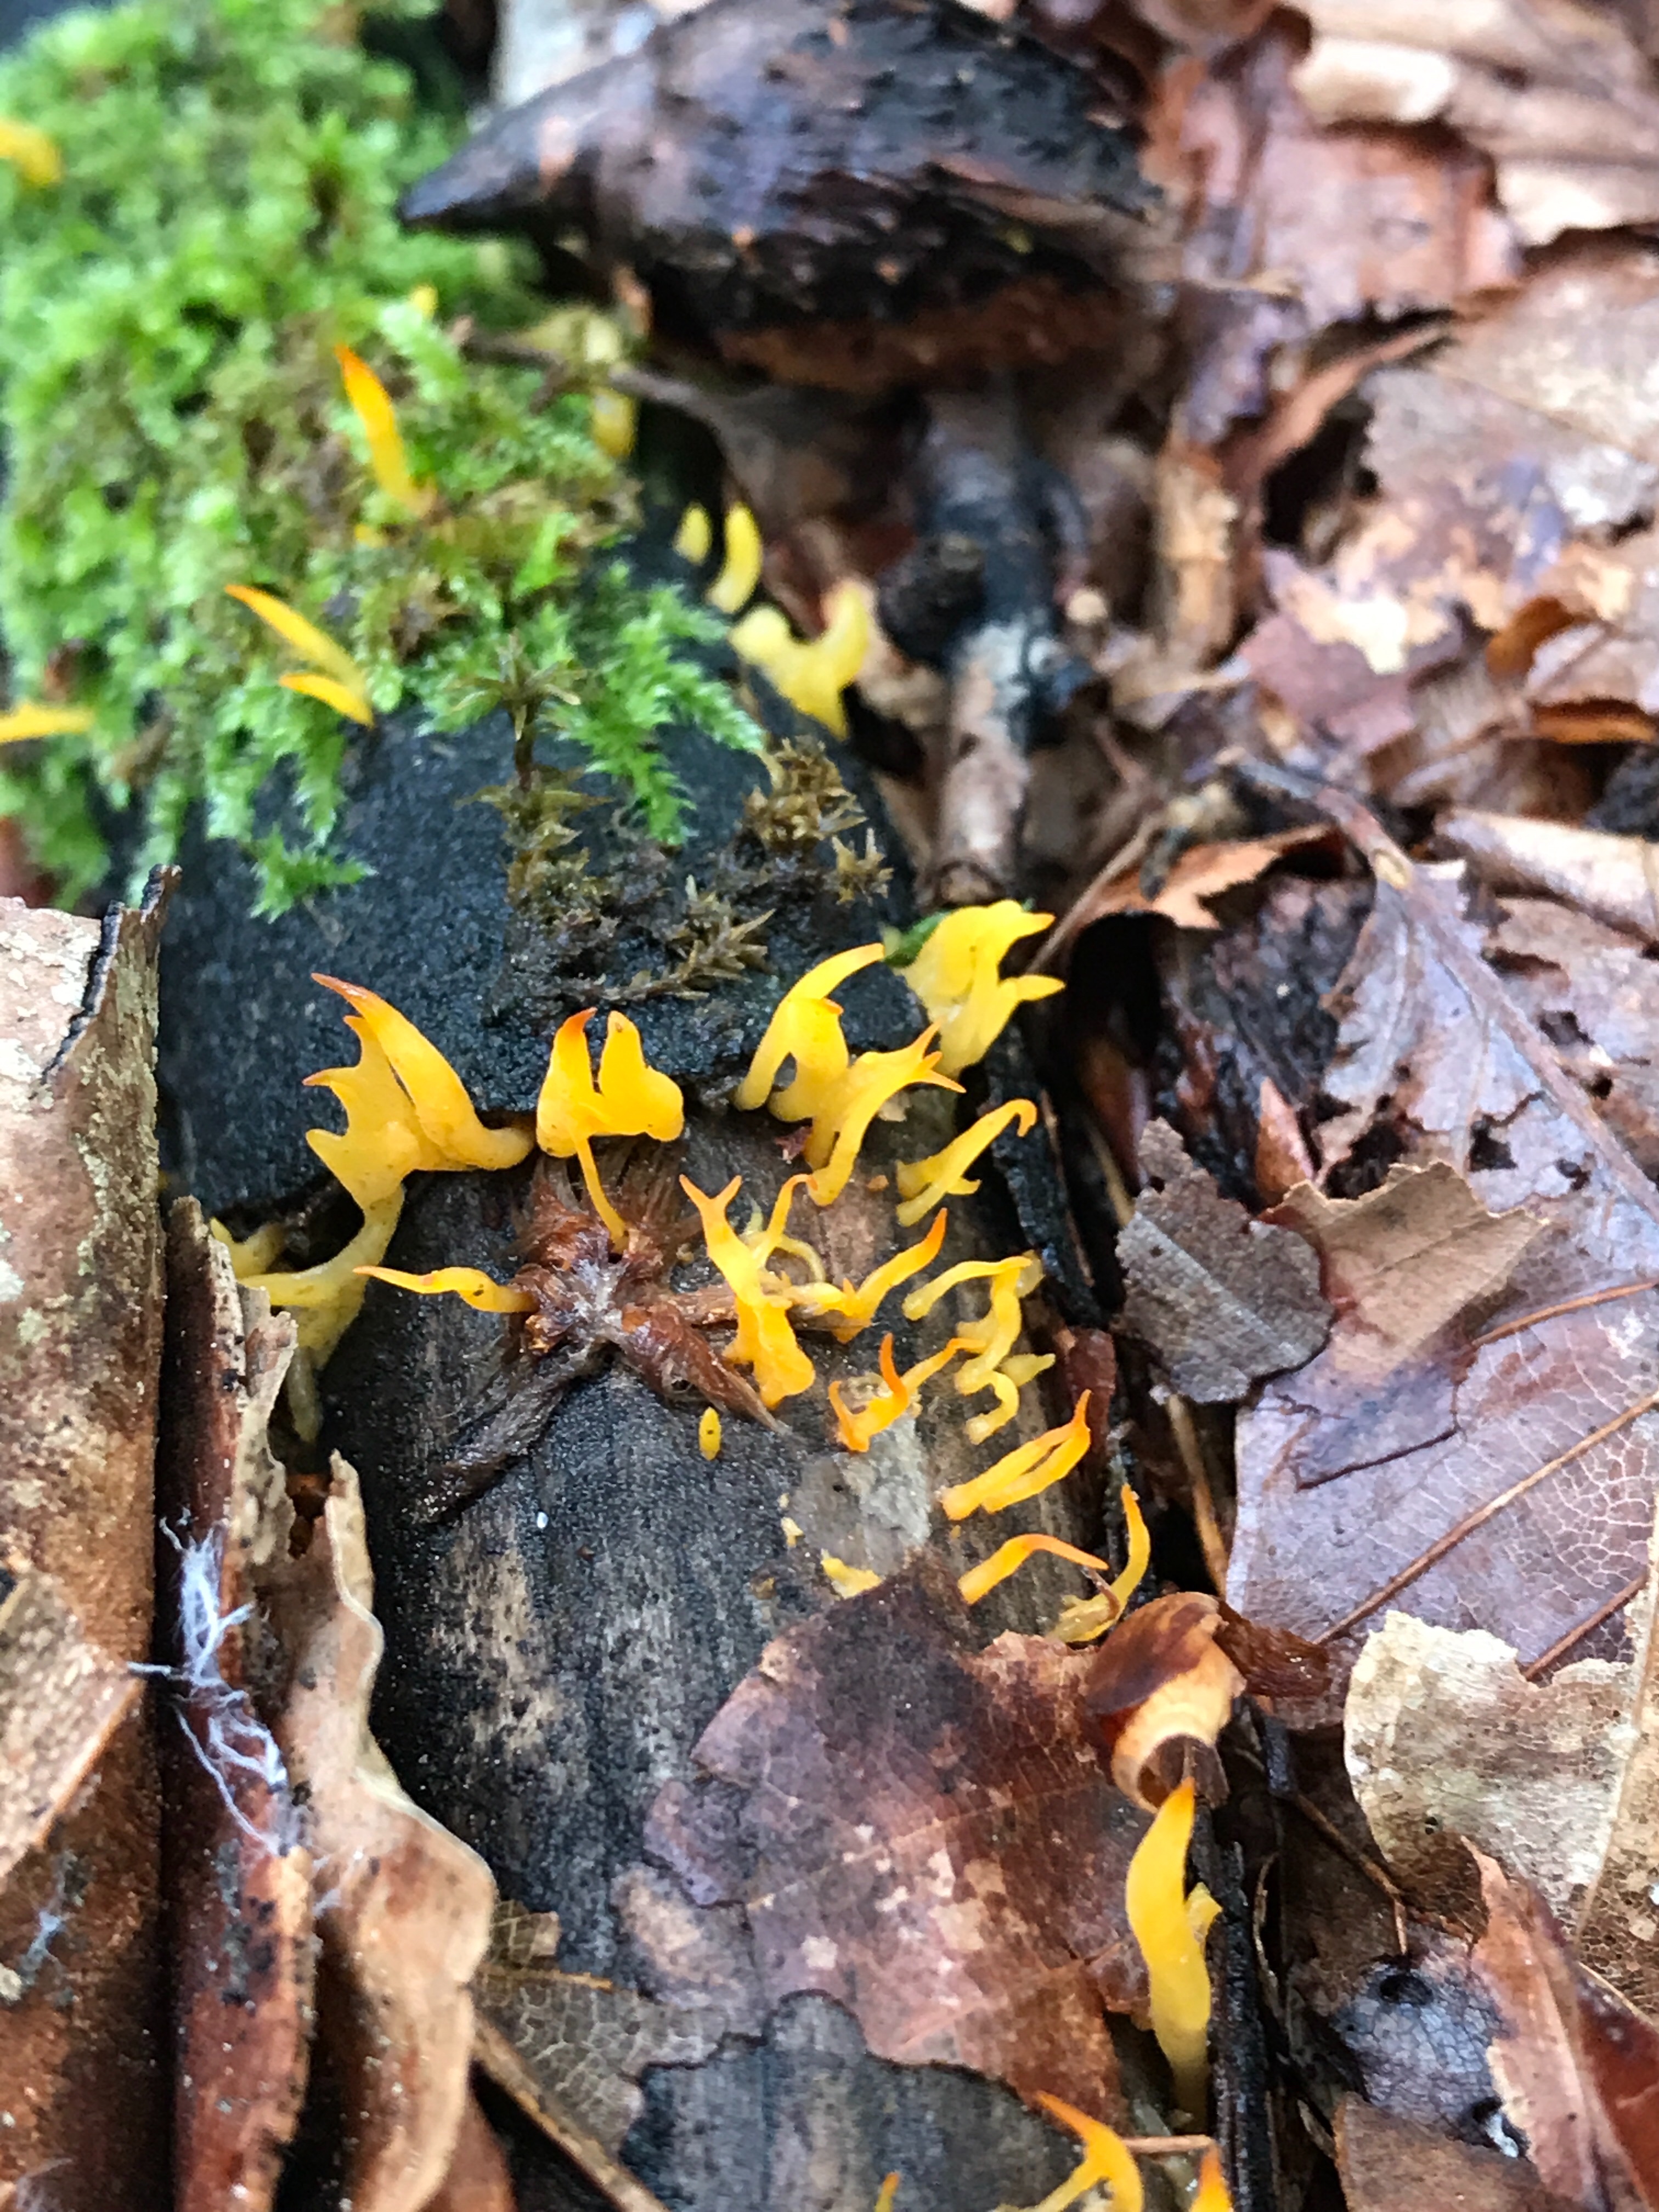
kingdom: Fungi
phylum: Basidiomycota
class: Dacrymycetes
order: Dacrymycetales
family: Dacrymycetaceae
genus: Calocera
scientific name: Calocera cornea
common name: liden guldgaffel
